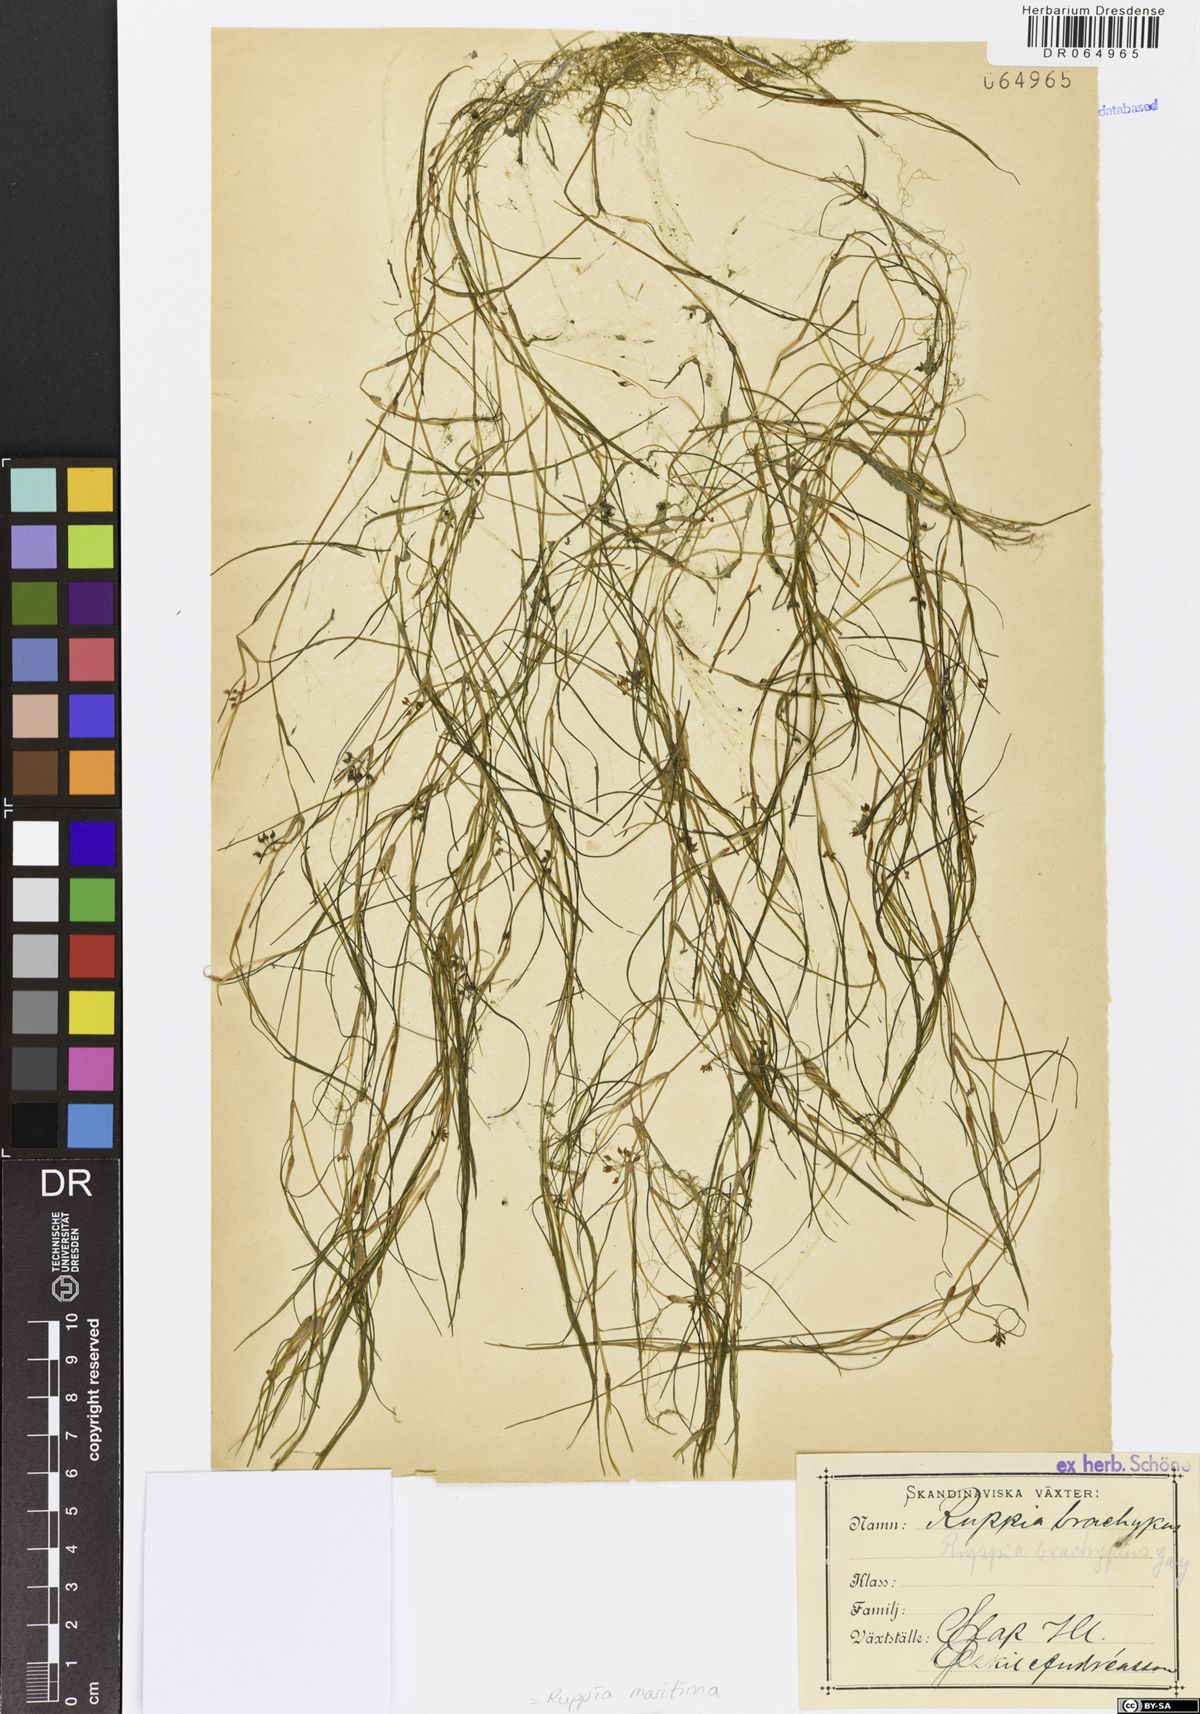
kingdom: Plantae
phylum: Tracheophyta
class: Liliopsida
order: Alismatales
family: Ruppiaceae
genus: Ruppia
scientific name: Ruppia maritima
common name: Beaked tasselweed
